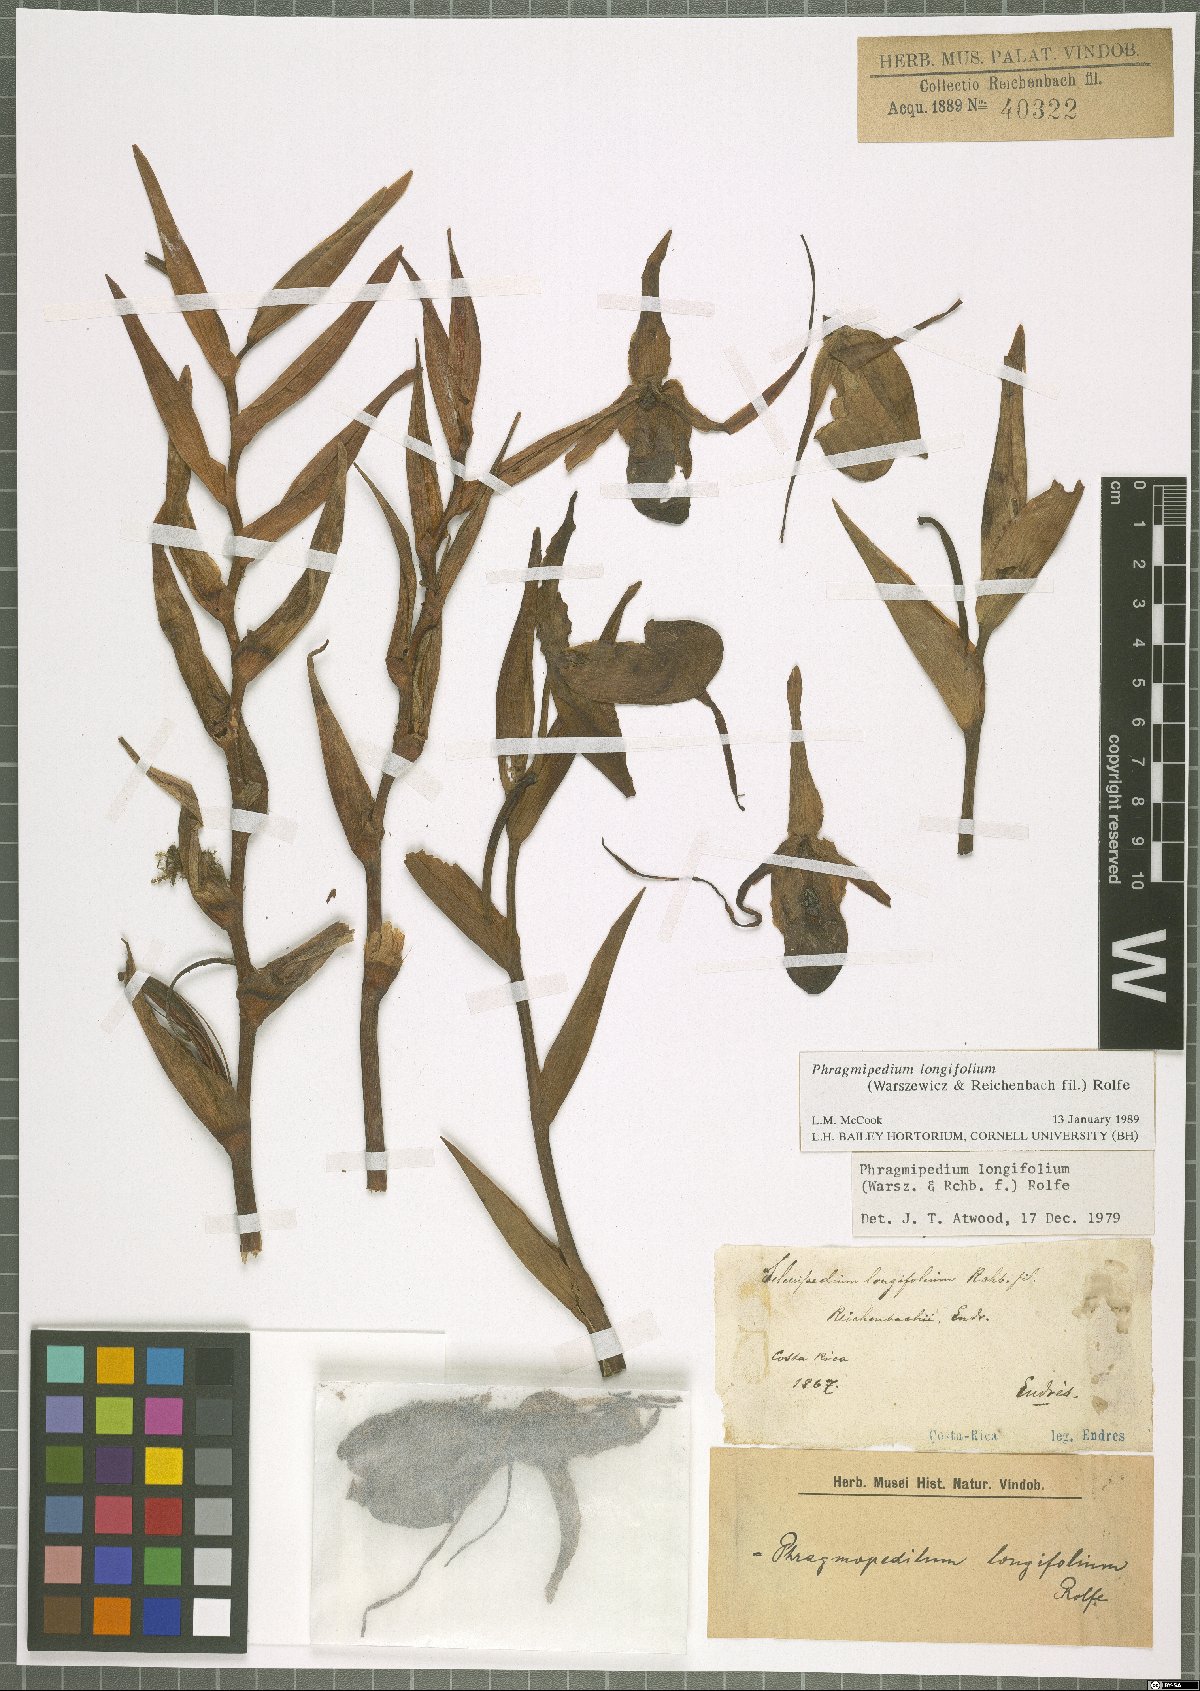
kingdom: Plantae
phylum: Tracheophyta
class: Liliopsida
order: Asparagales
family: Orchidaceae
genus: Phragmipedium
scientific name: Phragmipedium longifolium
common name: Long-leaf phragmipedium
